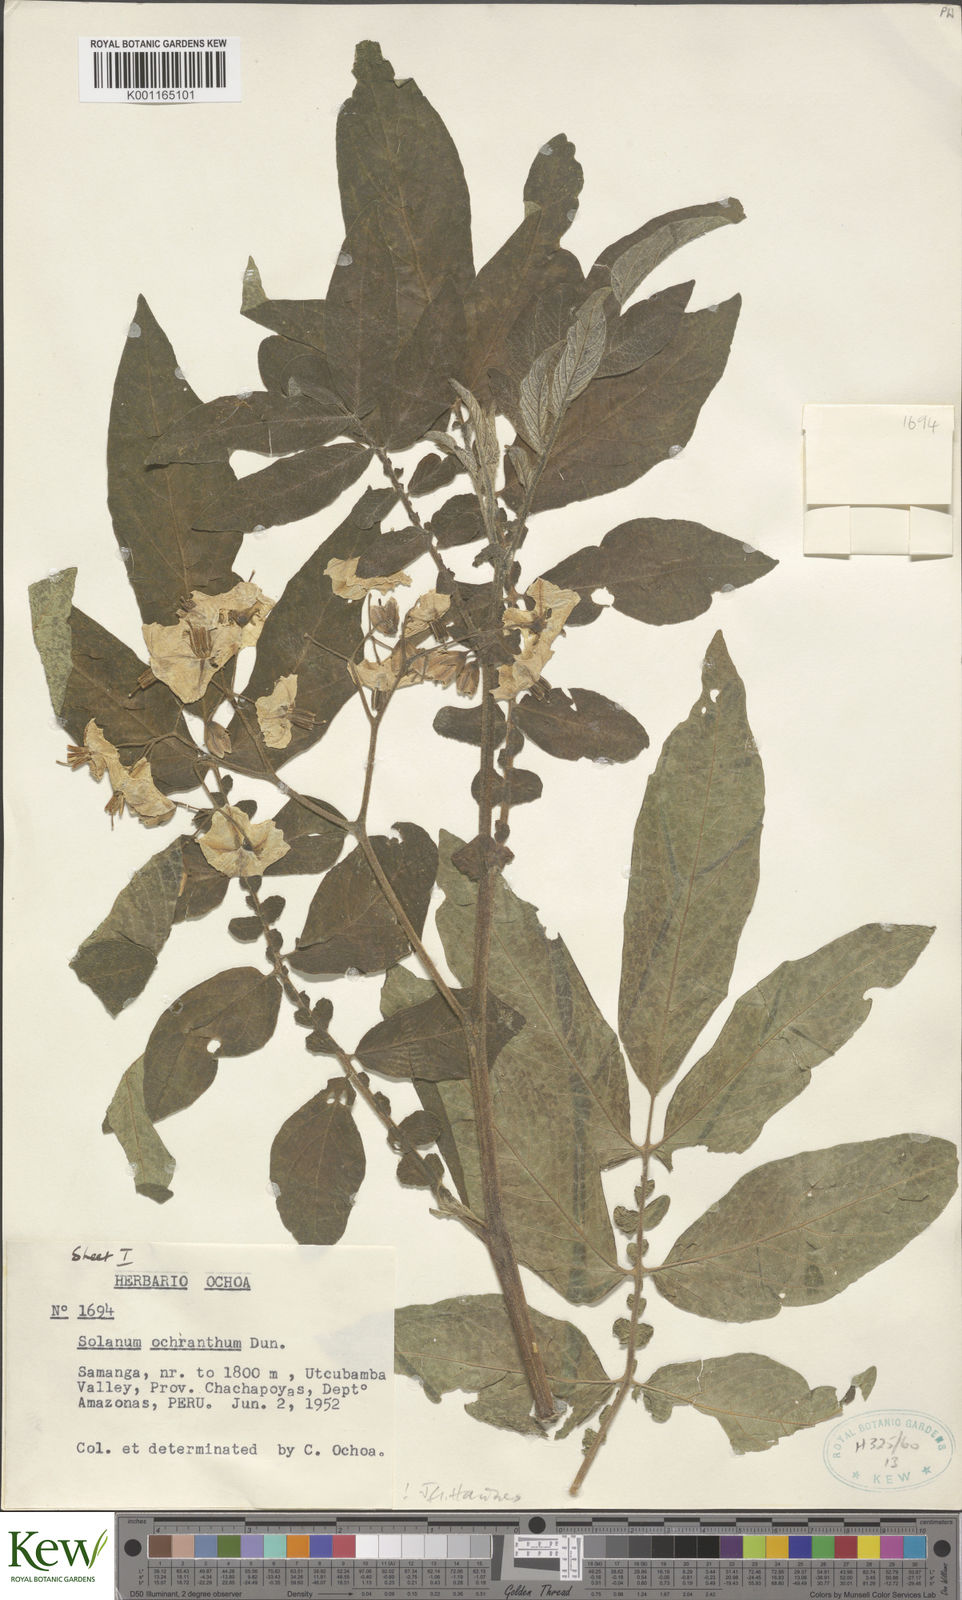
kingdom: Plantae
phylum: Tracheophyta
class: Magnoliopsida
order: Solanales
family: Solanaceae
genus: Solanum
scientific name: Solanum ochranthum
